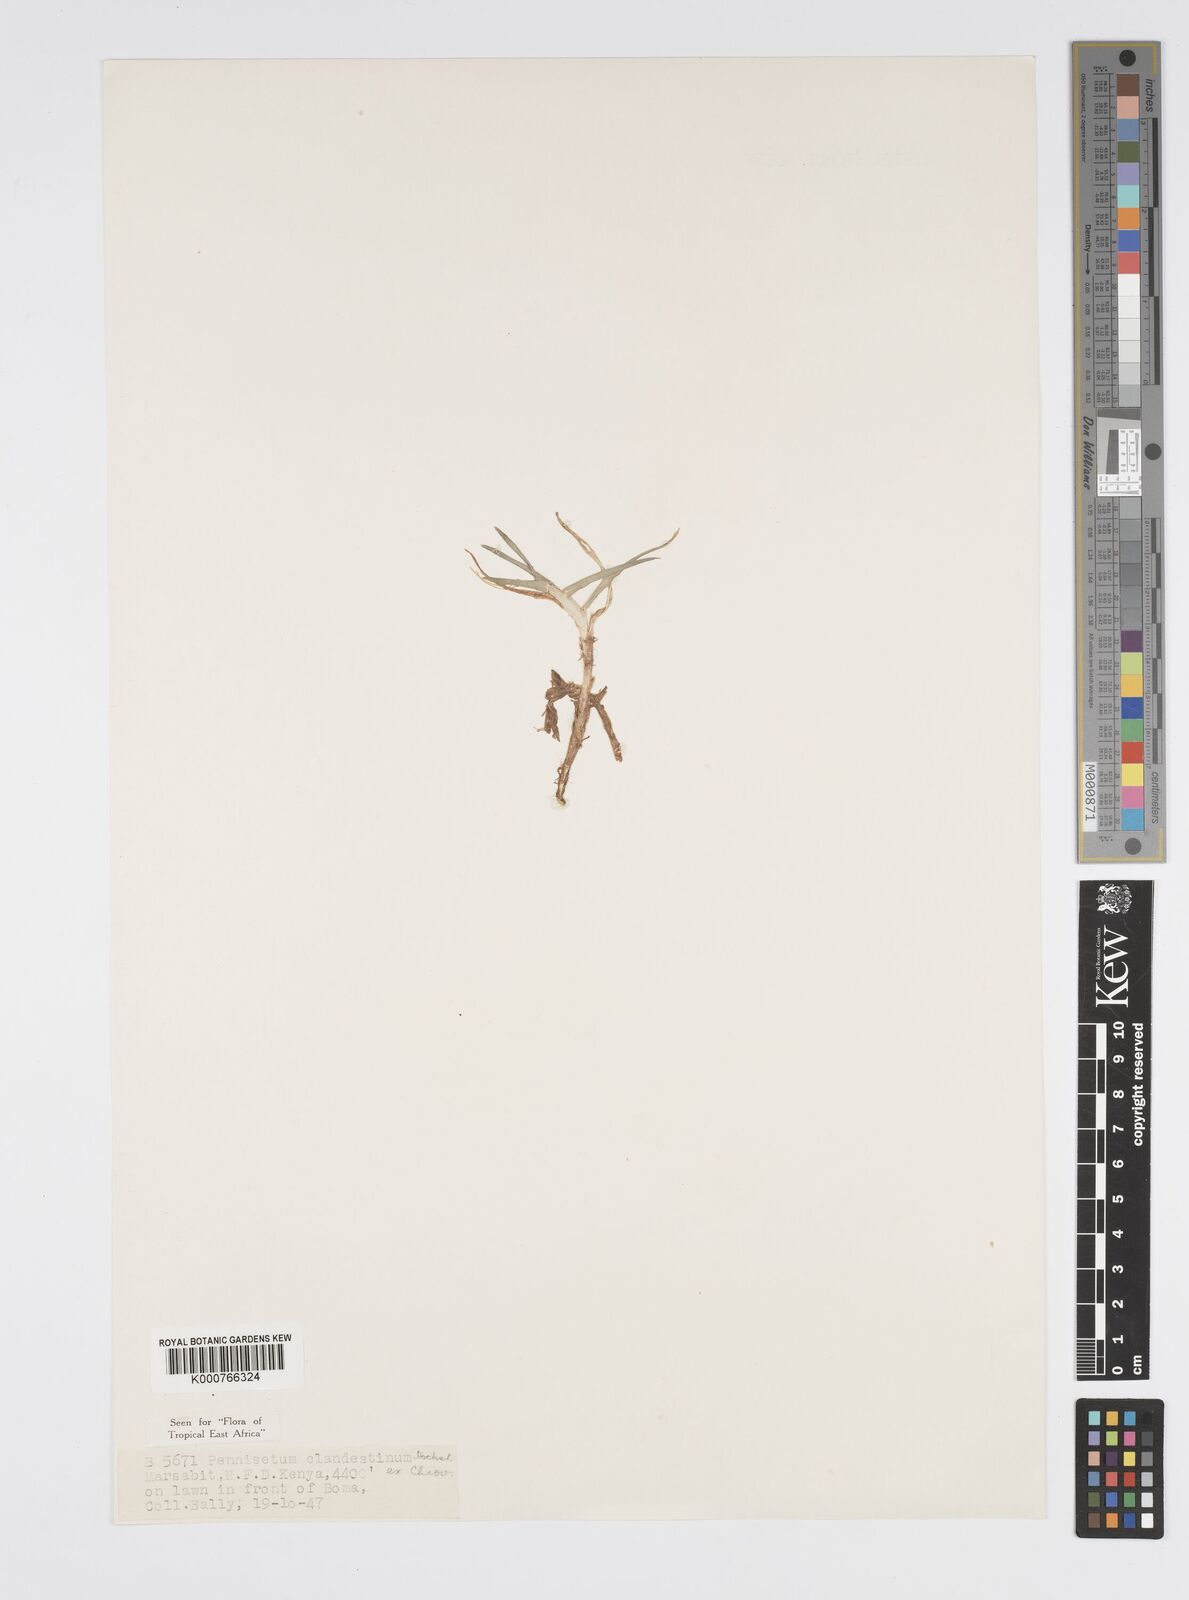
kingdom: Plantae
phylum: Tracheophyta
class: Liliopsida
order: Poales
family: Poaceae
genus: Cenchrus
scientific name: Cenchrus clandestinus
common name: Kikuyugrass
